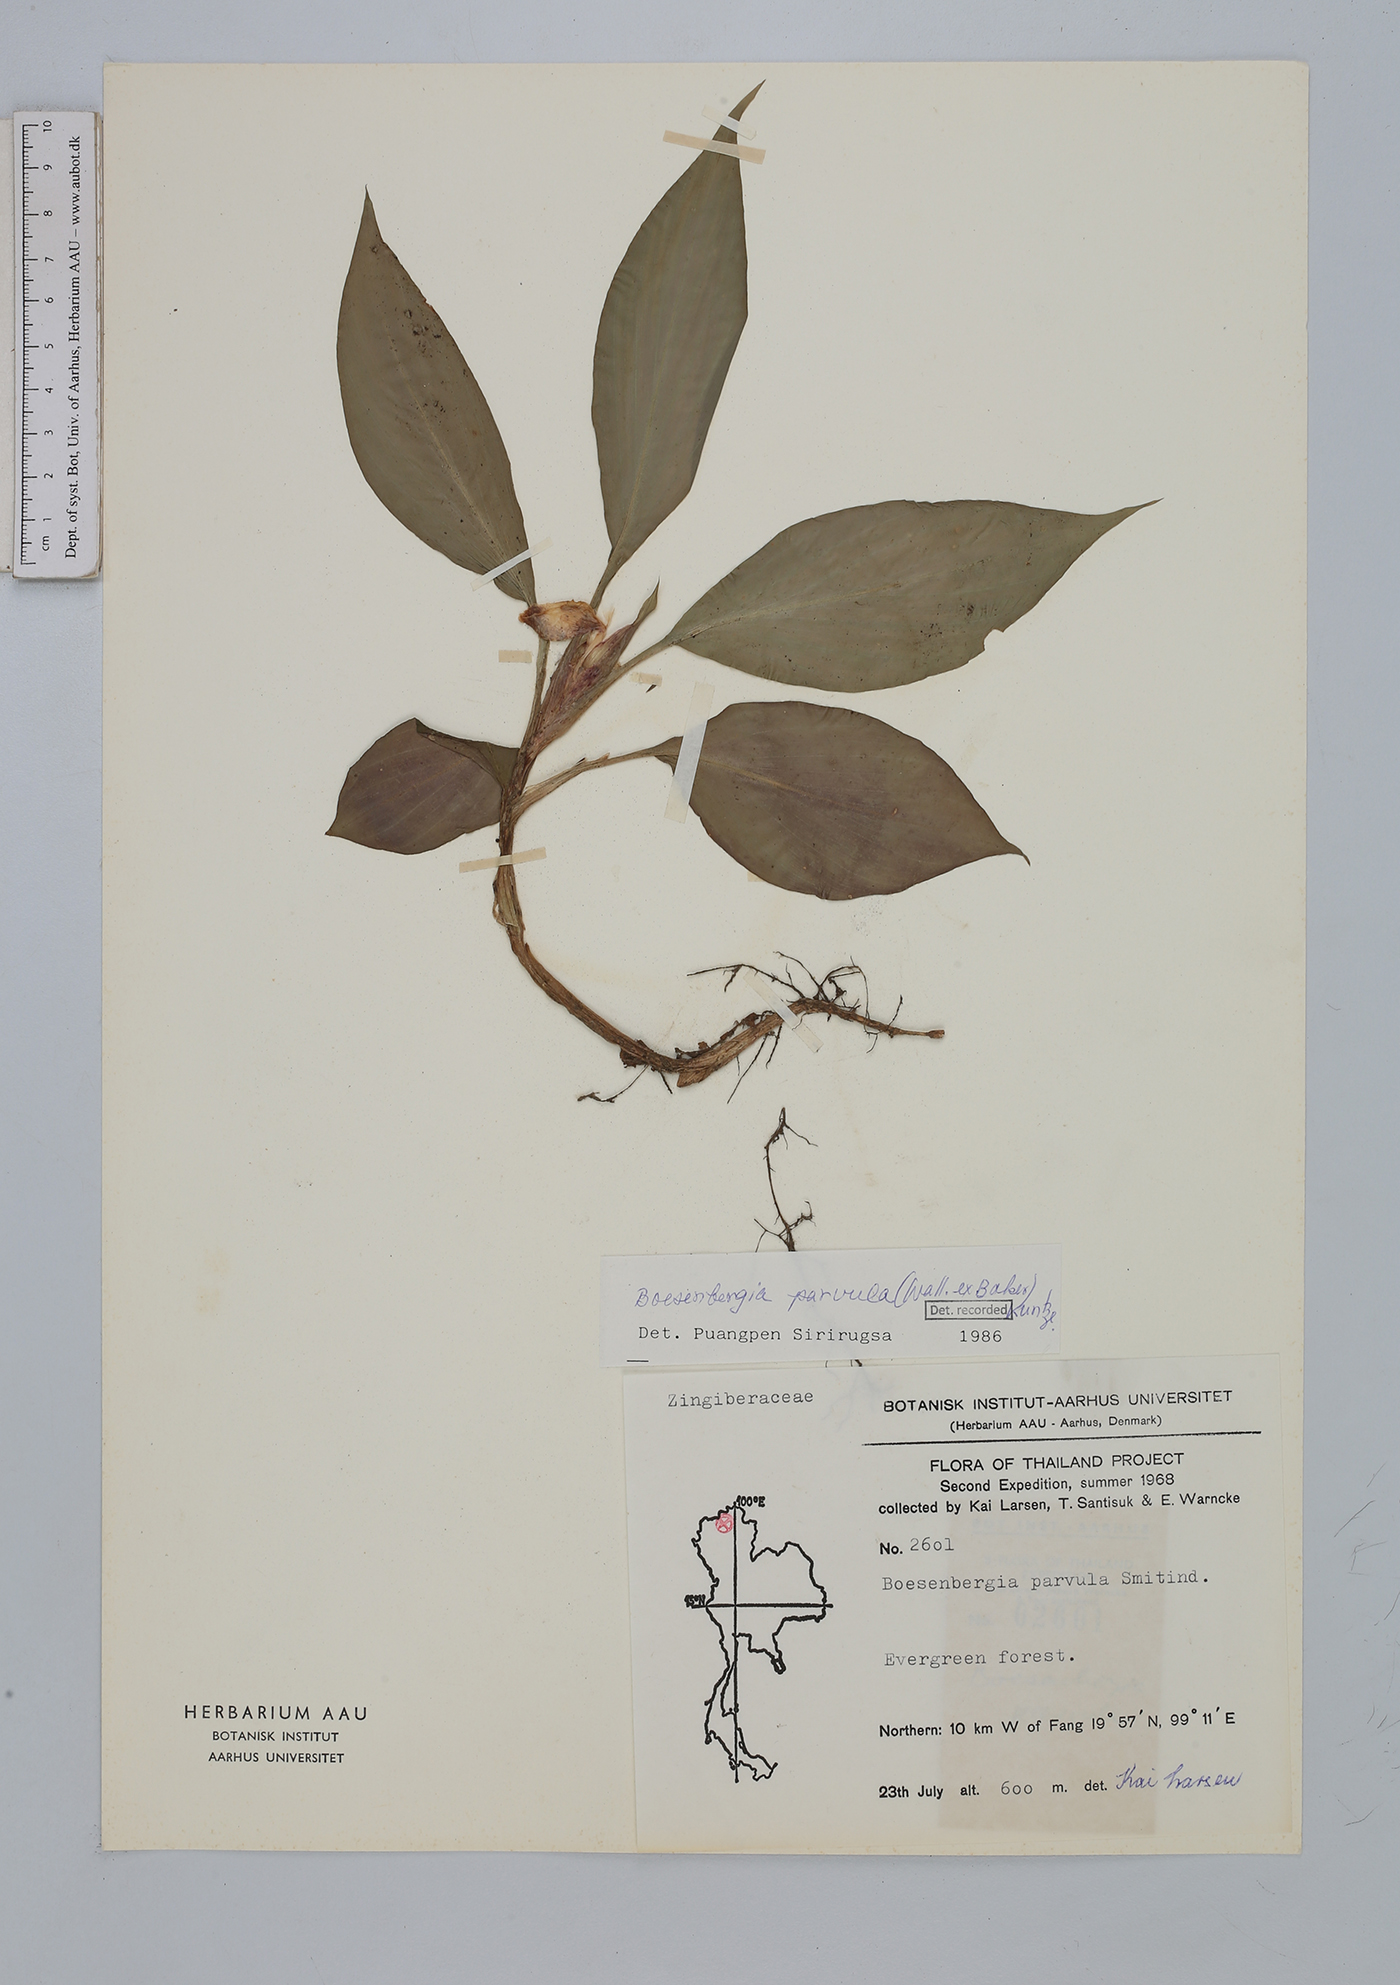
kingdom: Plantae
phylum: Tracheophyta
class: Liliopsida
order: Zingiberales
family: Zingiberaceae
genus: Boesenbergia
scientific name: Boesenbergia parvula
